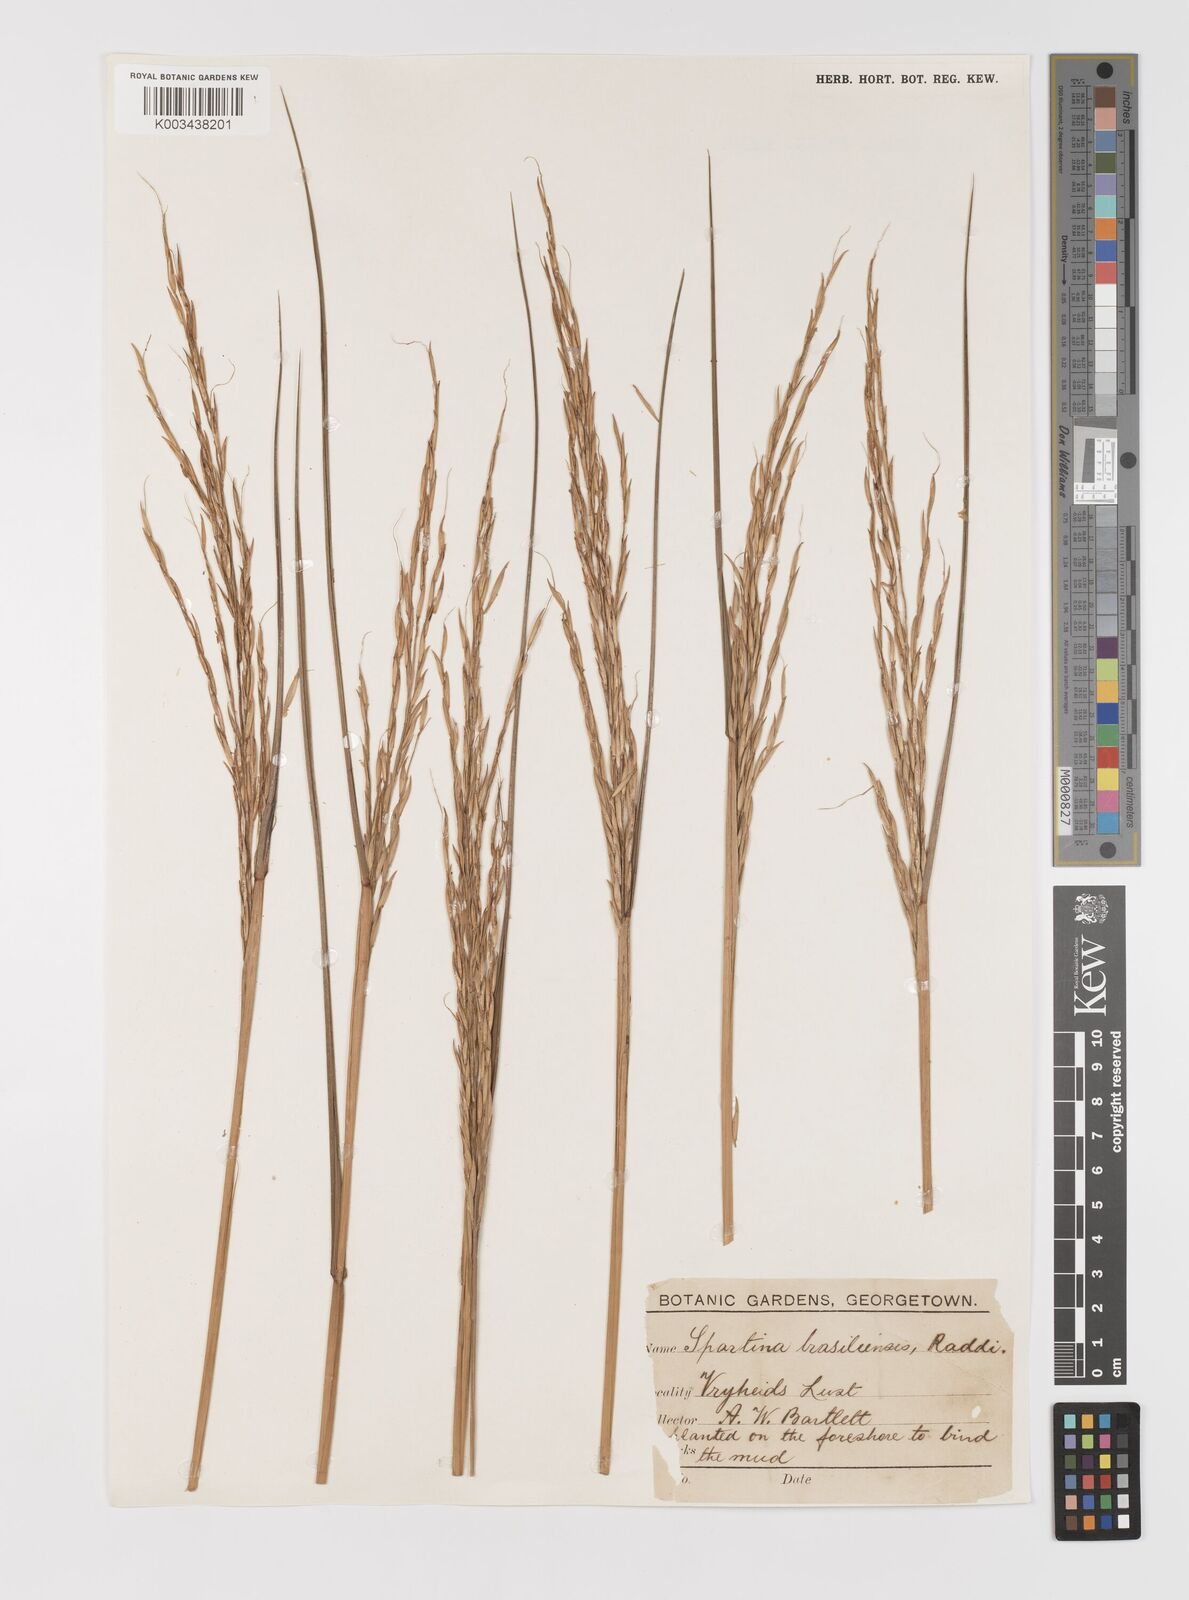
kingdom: Plantae
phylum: Tracheophyta
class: Liliopsida
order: Poales
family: Poaceae
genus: Sporobolus
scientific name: Sporobolus alterniflorus
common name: Atlantic cordgrass
